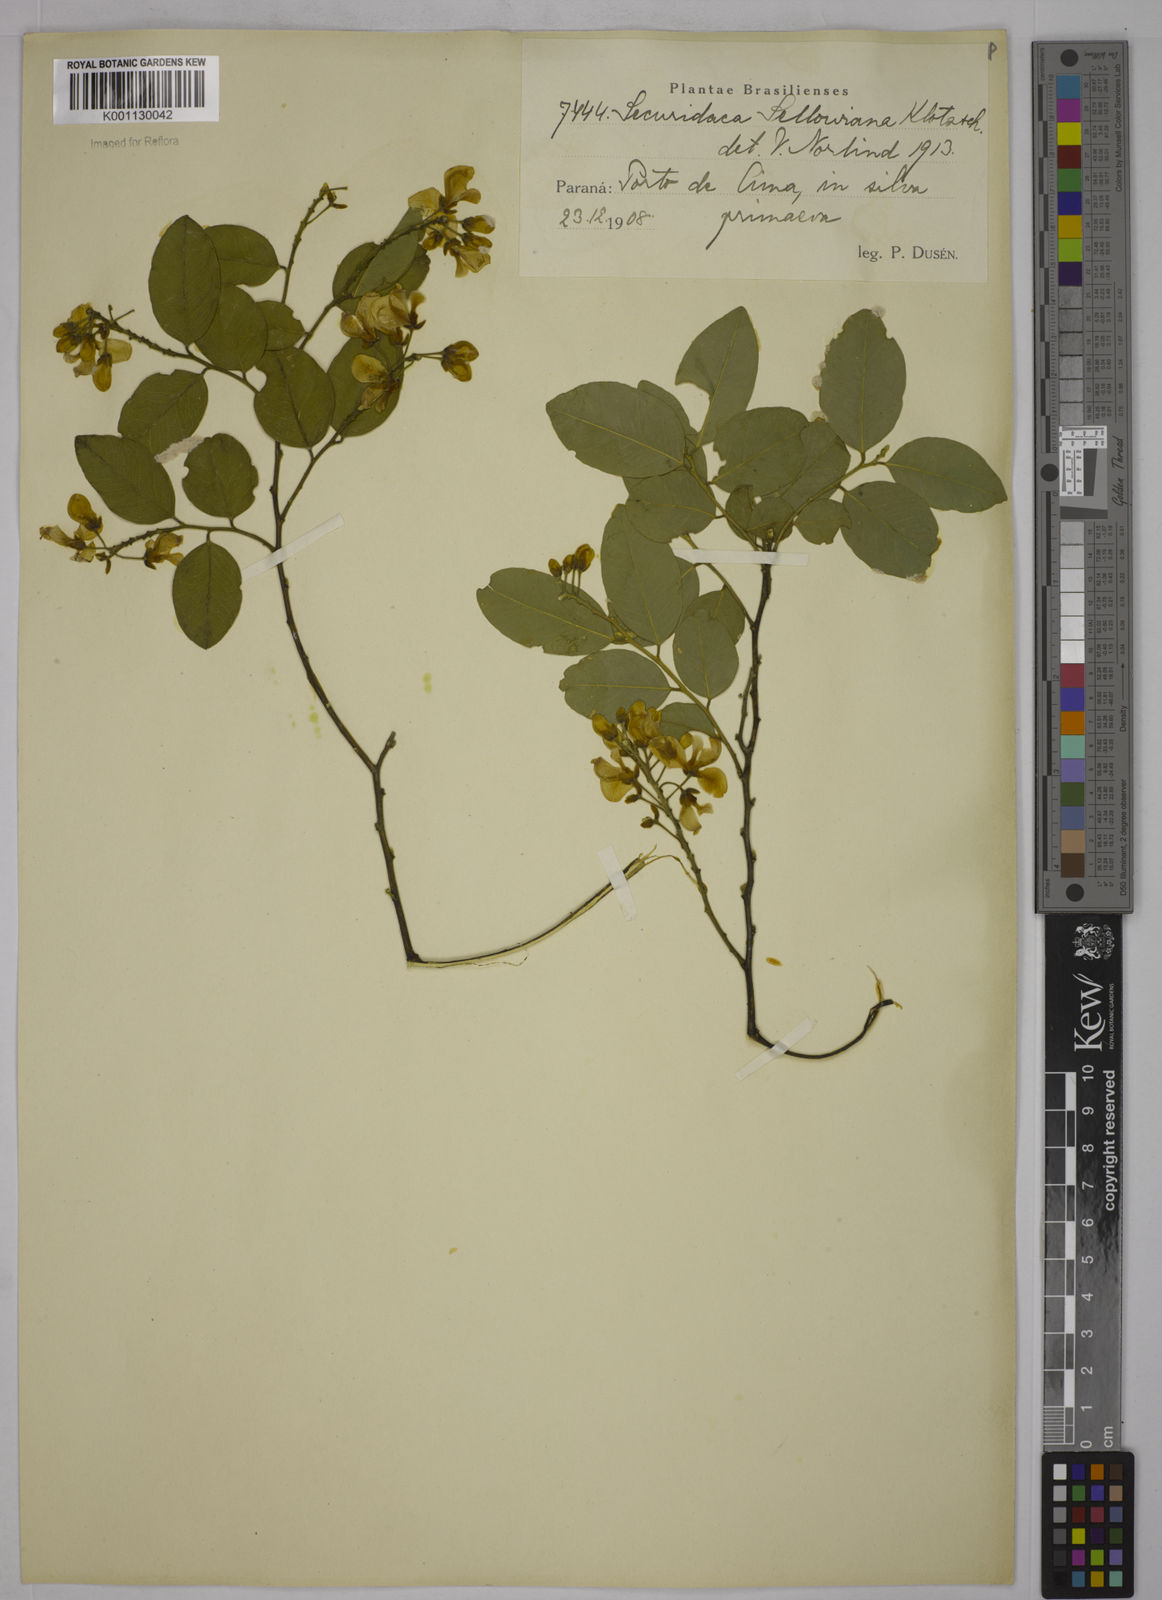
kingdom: Plantae
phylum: Tracheophyta
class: Magnoliopsida
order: Fabales
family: Polygalaceae
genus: Securidaca
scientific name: Securidaca
